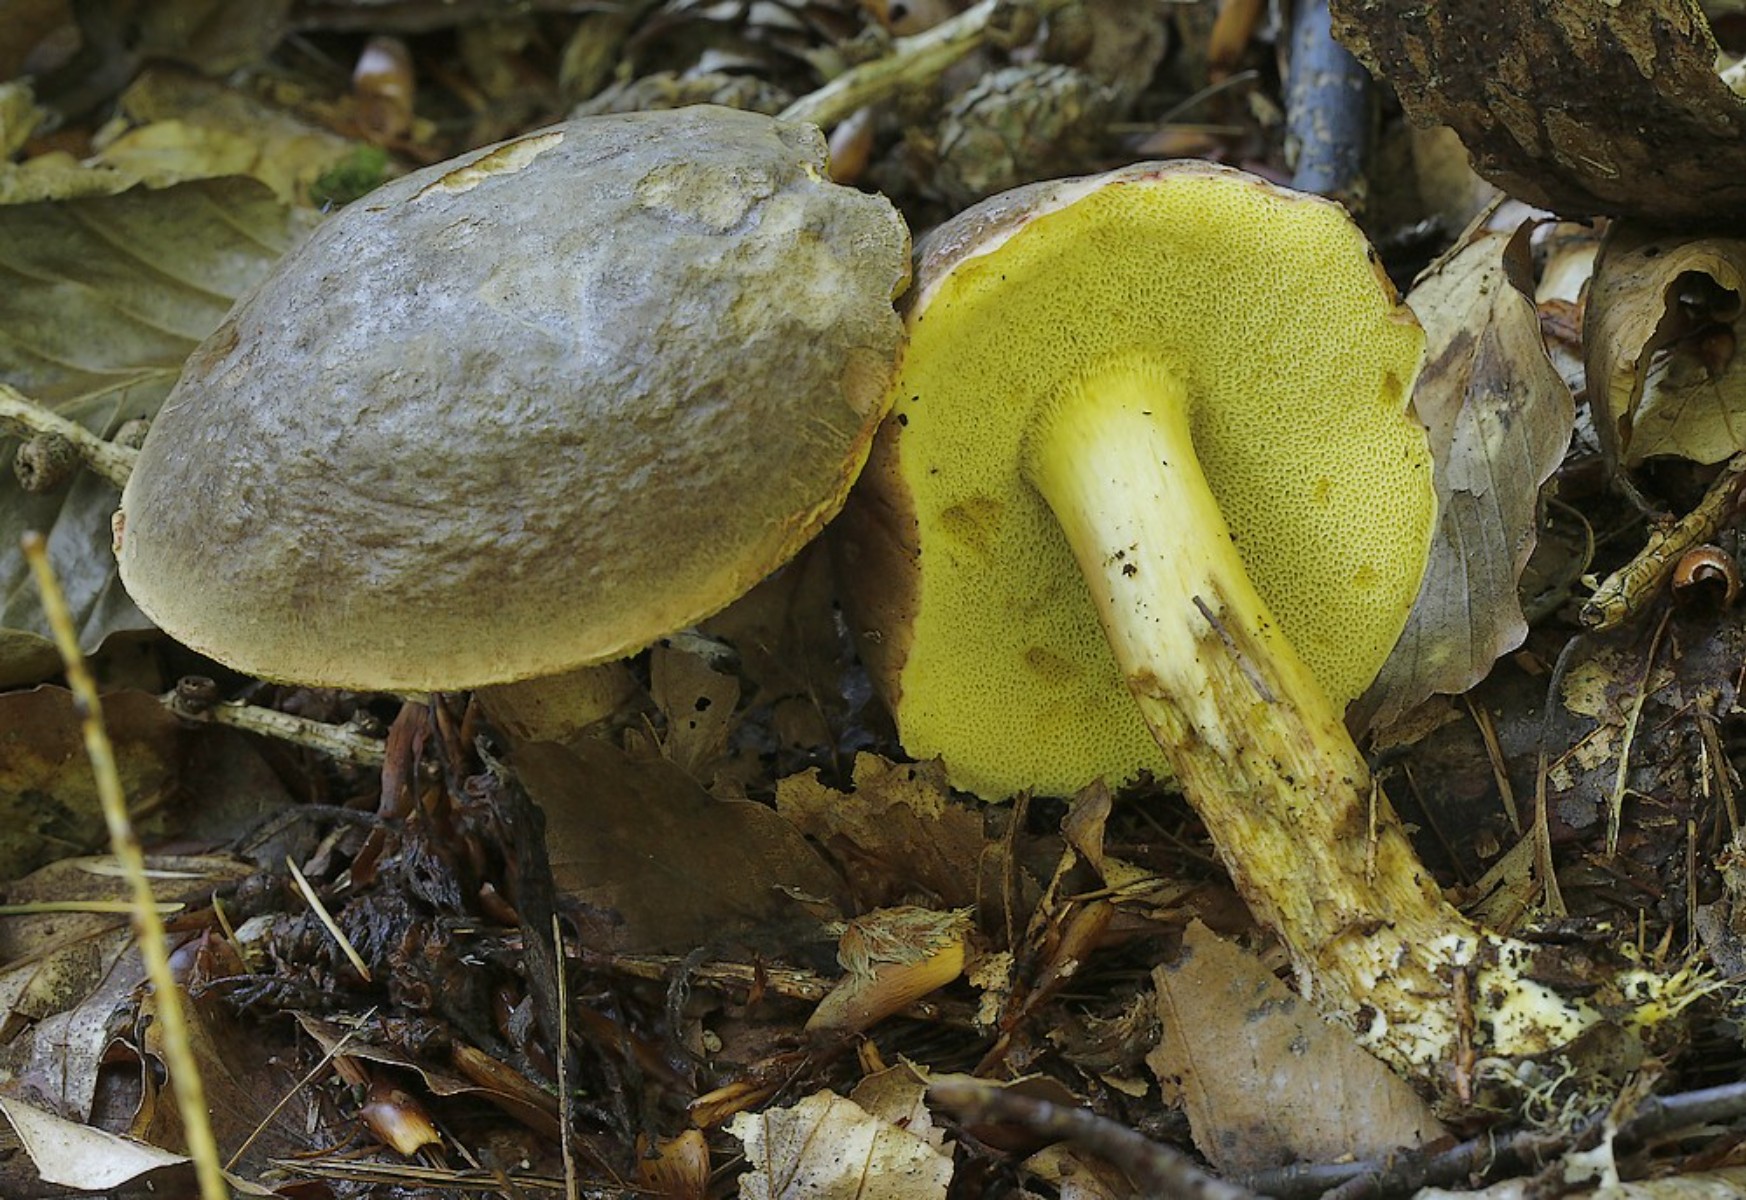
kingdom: Fungi
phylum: Basidiomycota
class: Agaricomycetes
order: Boletales
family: Boletaceae
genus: Xerocomellus
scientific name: Xerocomellus pruinatus
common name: dugget rørhat
